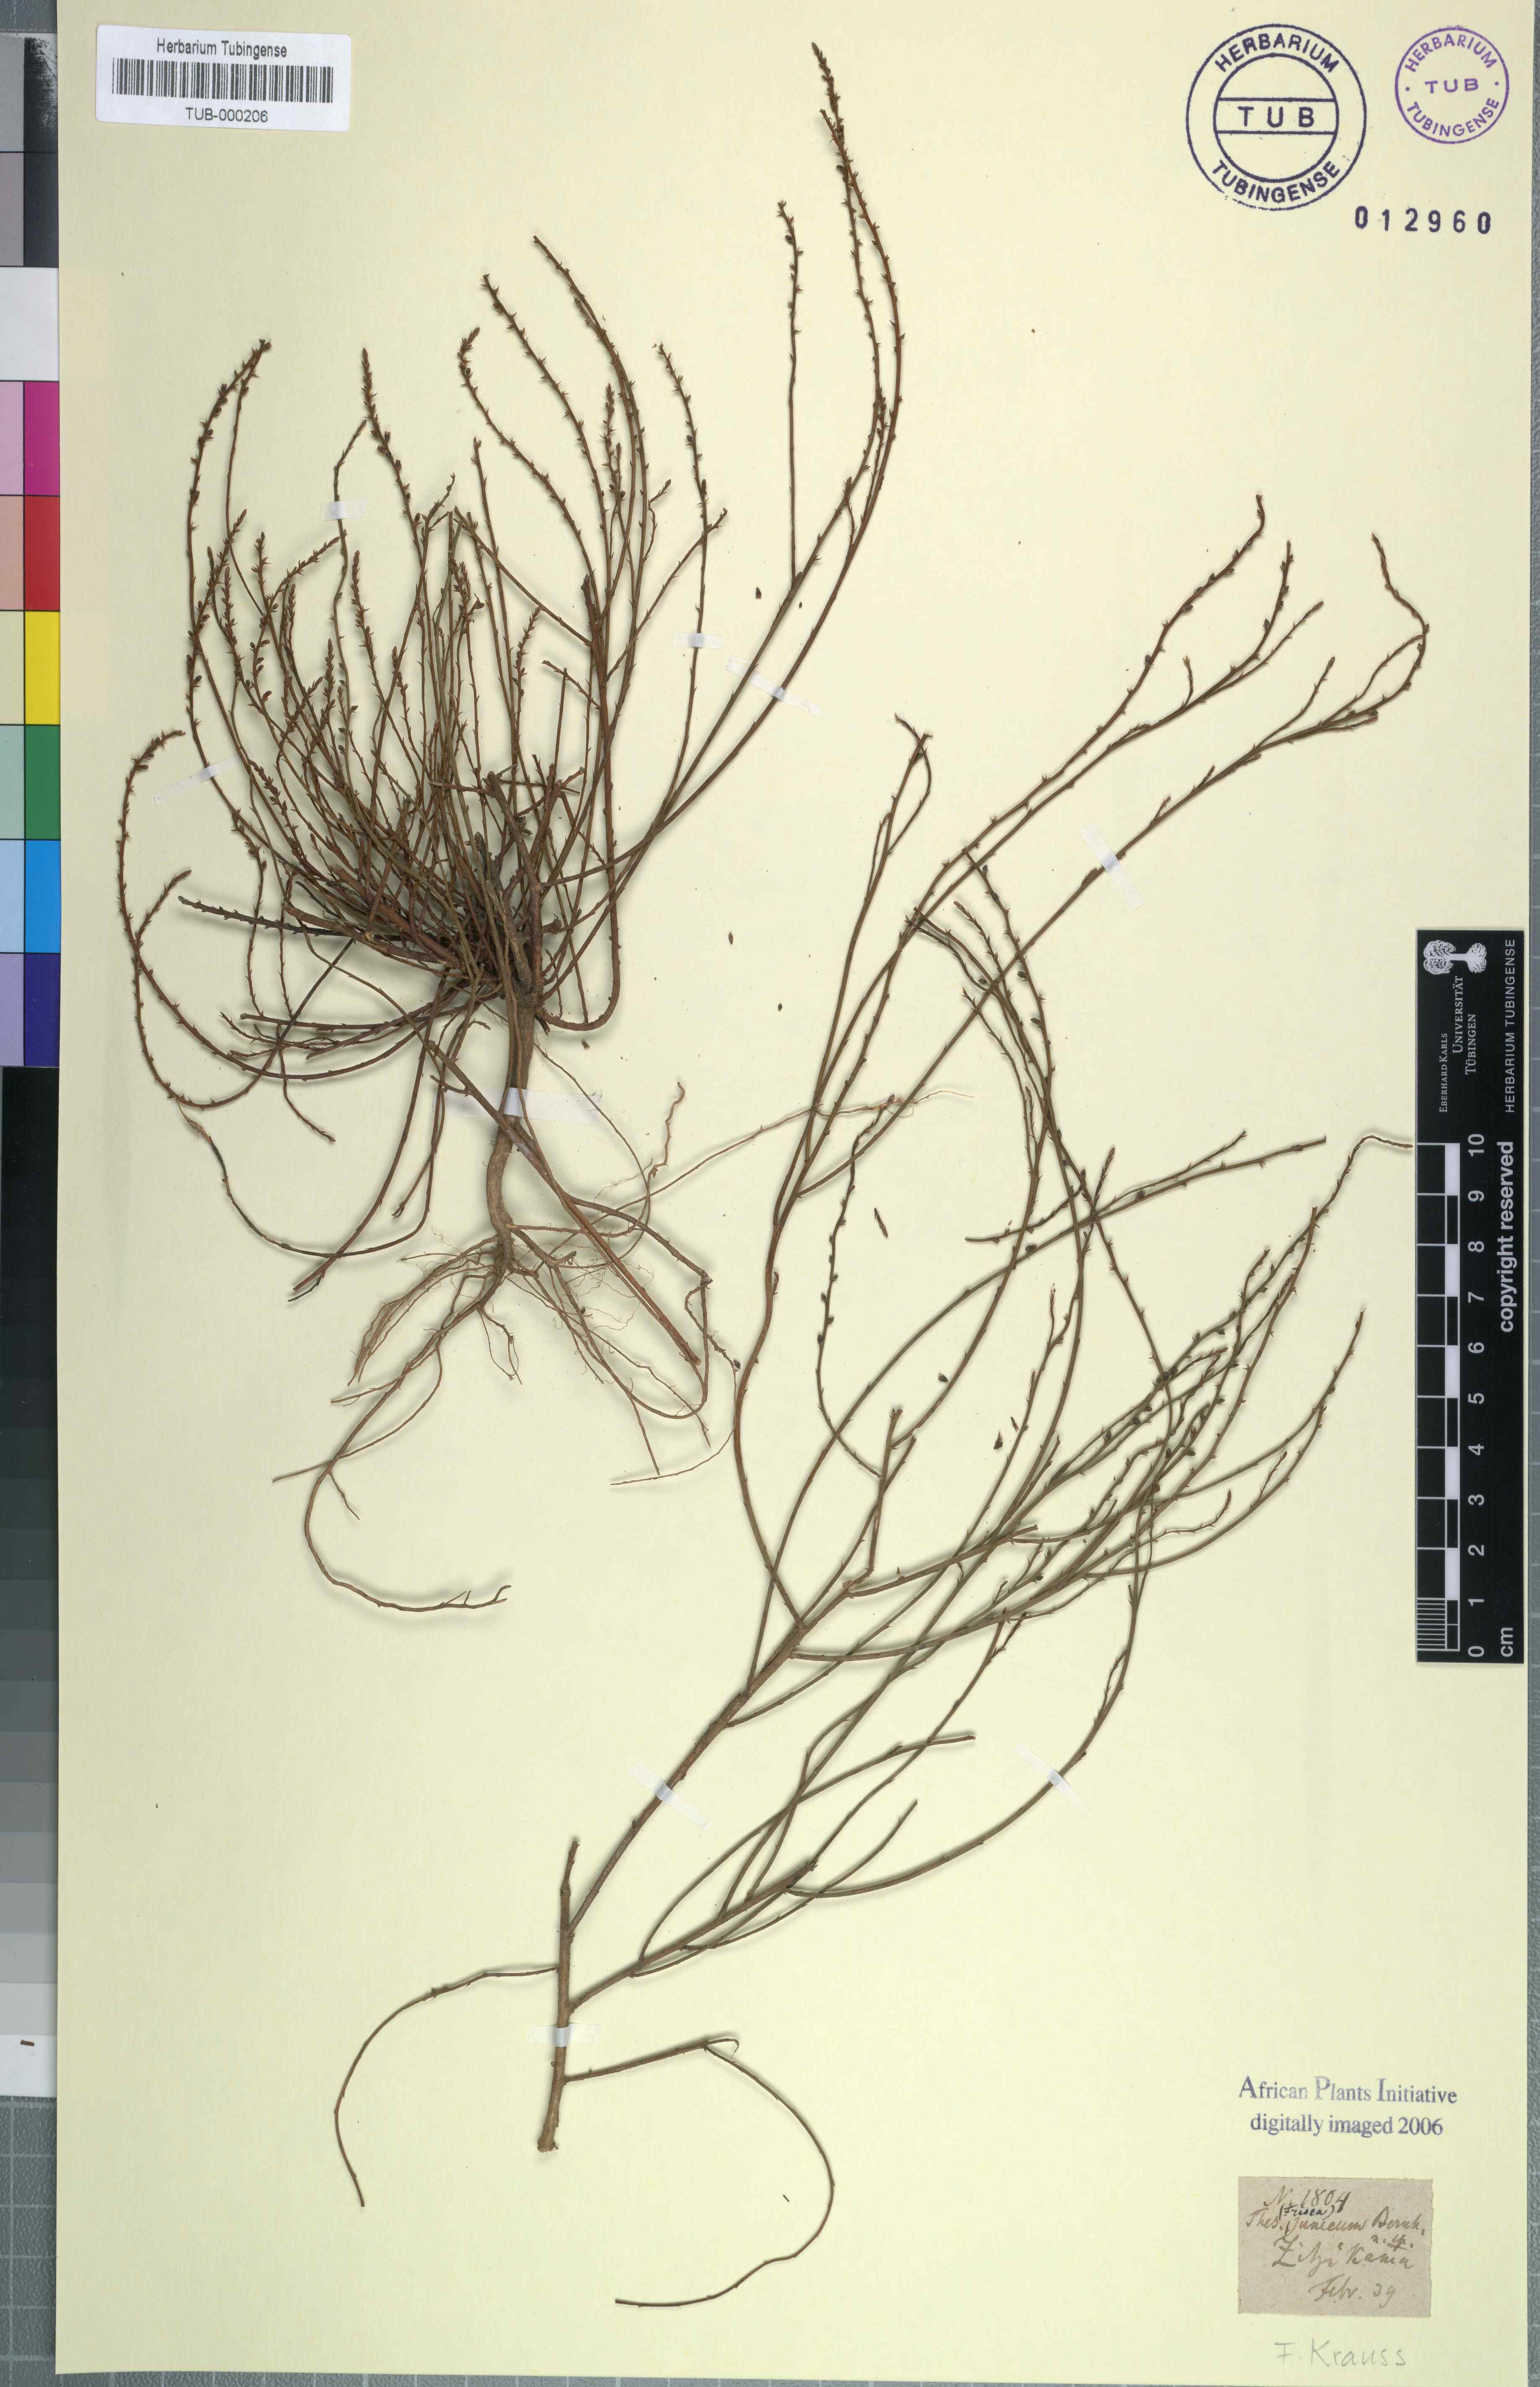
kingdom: Plantae
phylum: Tracheophyta
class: Magnoliopsida
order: Santalales
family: Thesiaceae
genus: Thesium
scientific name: Thesium junceum
